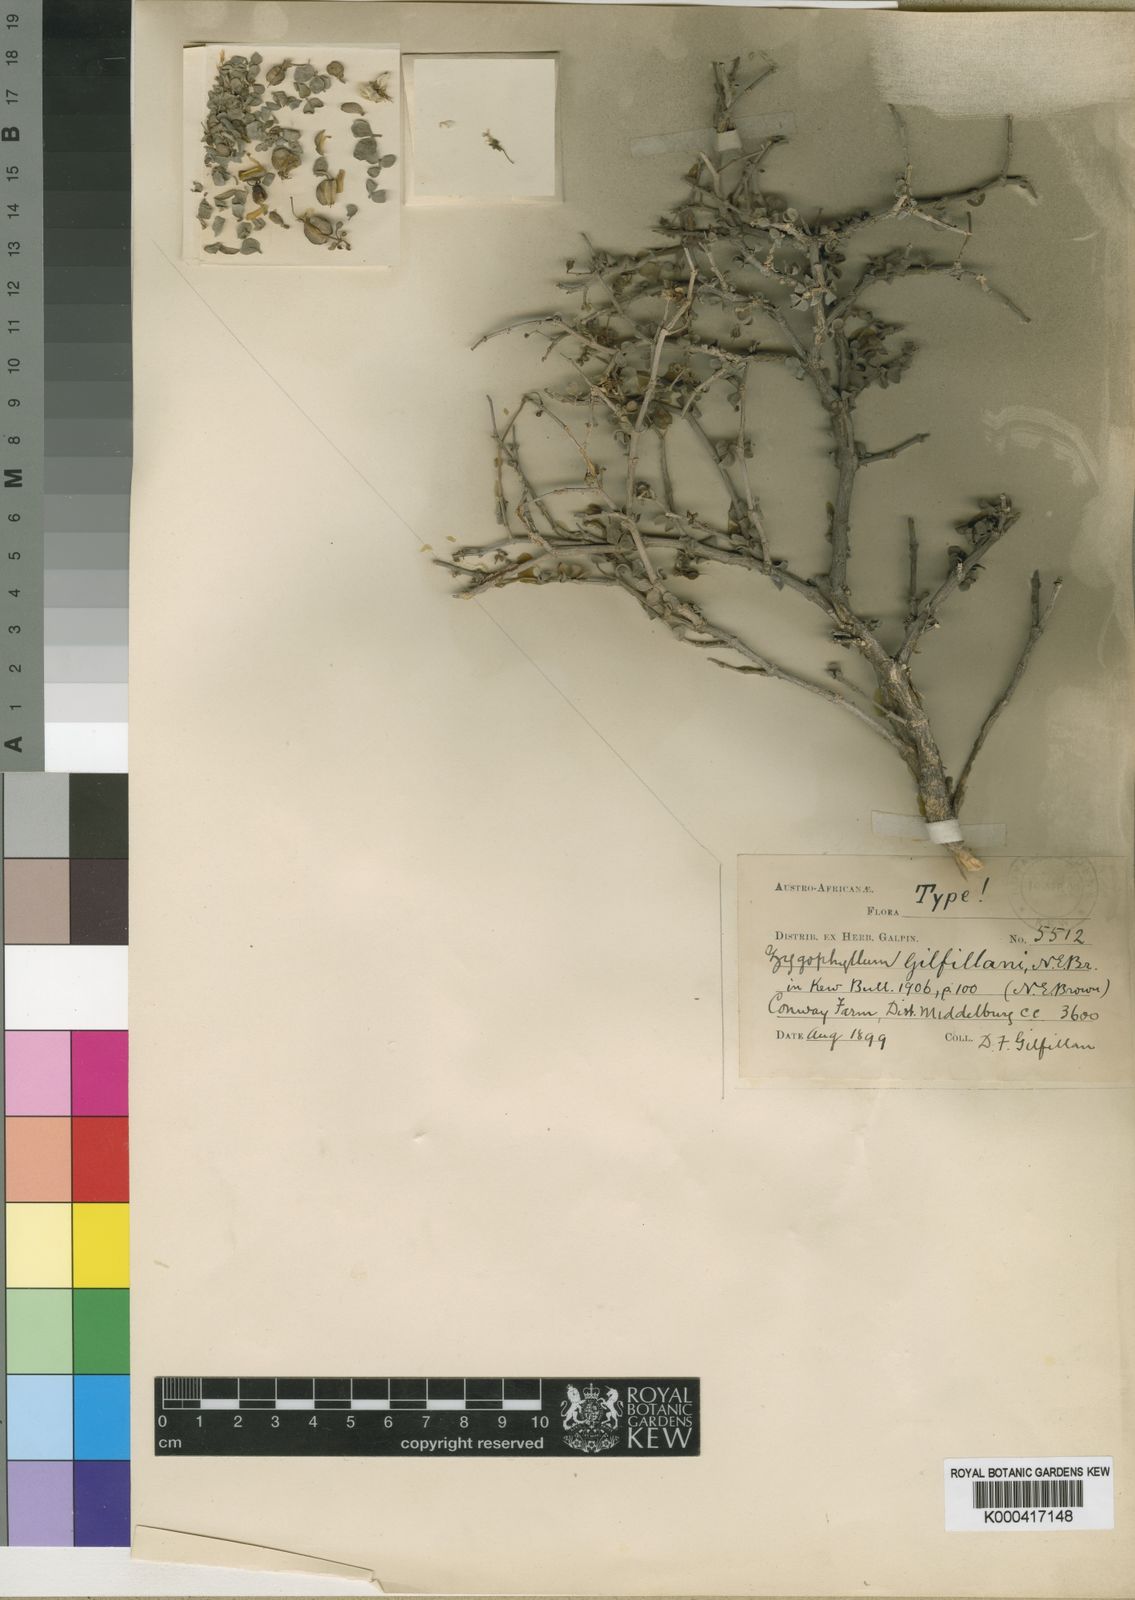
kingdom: Plantae
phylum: Tracheophyta
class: Magnoliopsida
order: Zygophyllales
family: Zygophyllaceae
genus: Roepera
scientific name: Roepera lichtensteiniana
